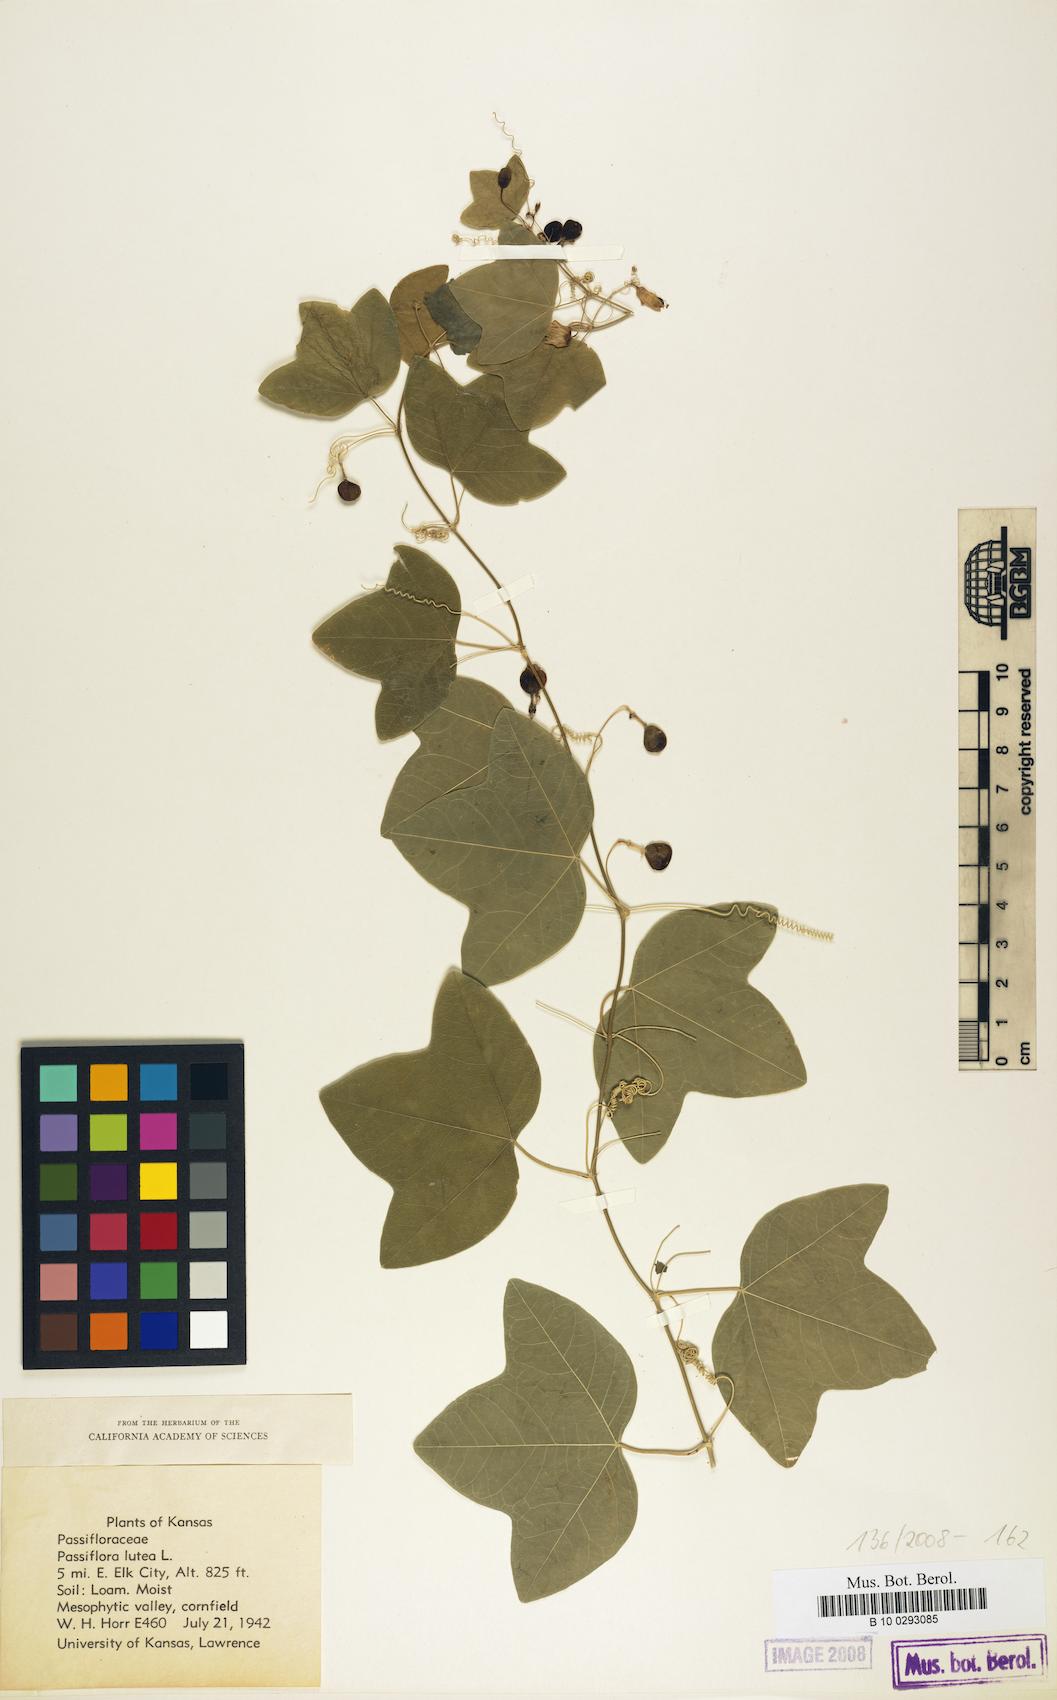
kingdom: Plantae
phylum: Tracheophyta
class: Magnoliopsida
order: Malpighiales
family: Passifloraceae
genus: Passiflora
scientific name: Passiflora lutea
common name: Yellow passionflower
